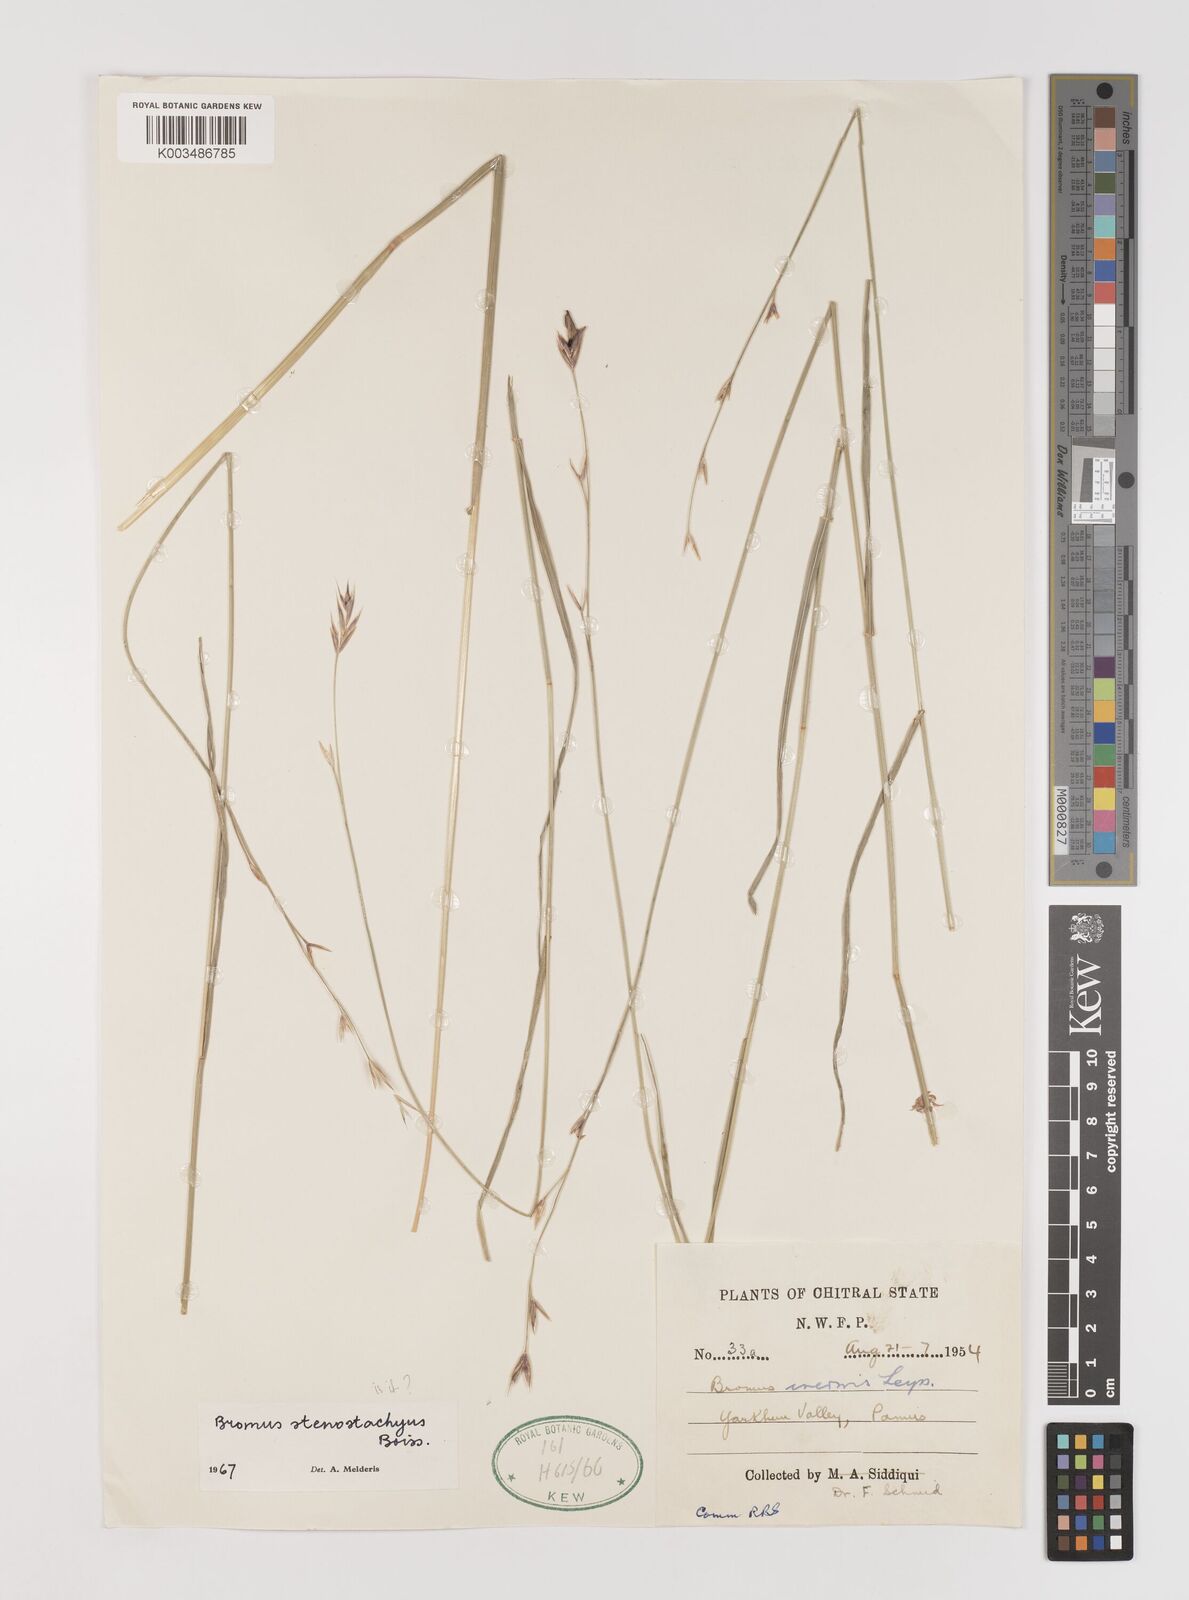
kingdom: Plantae
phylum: Tracheophyta
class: Liliopsida
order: Poales
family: Poaceae
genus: Bromus
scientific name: Bromus stenostachyus
